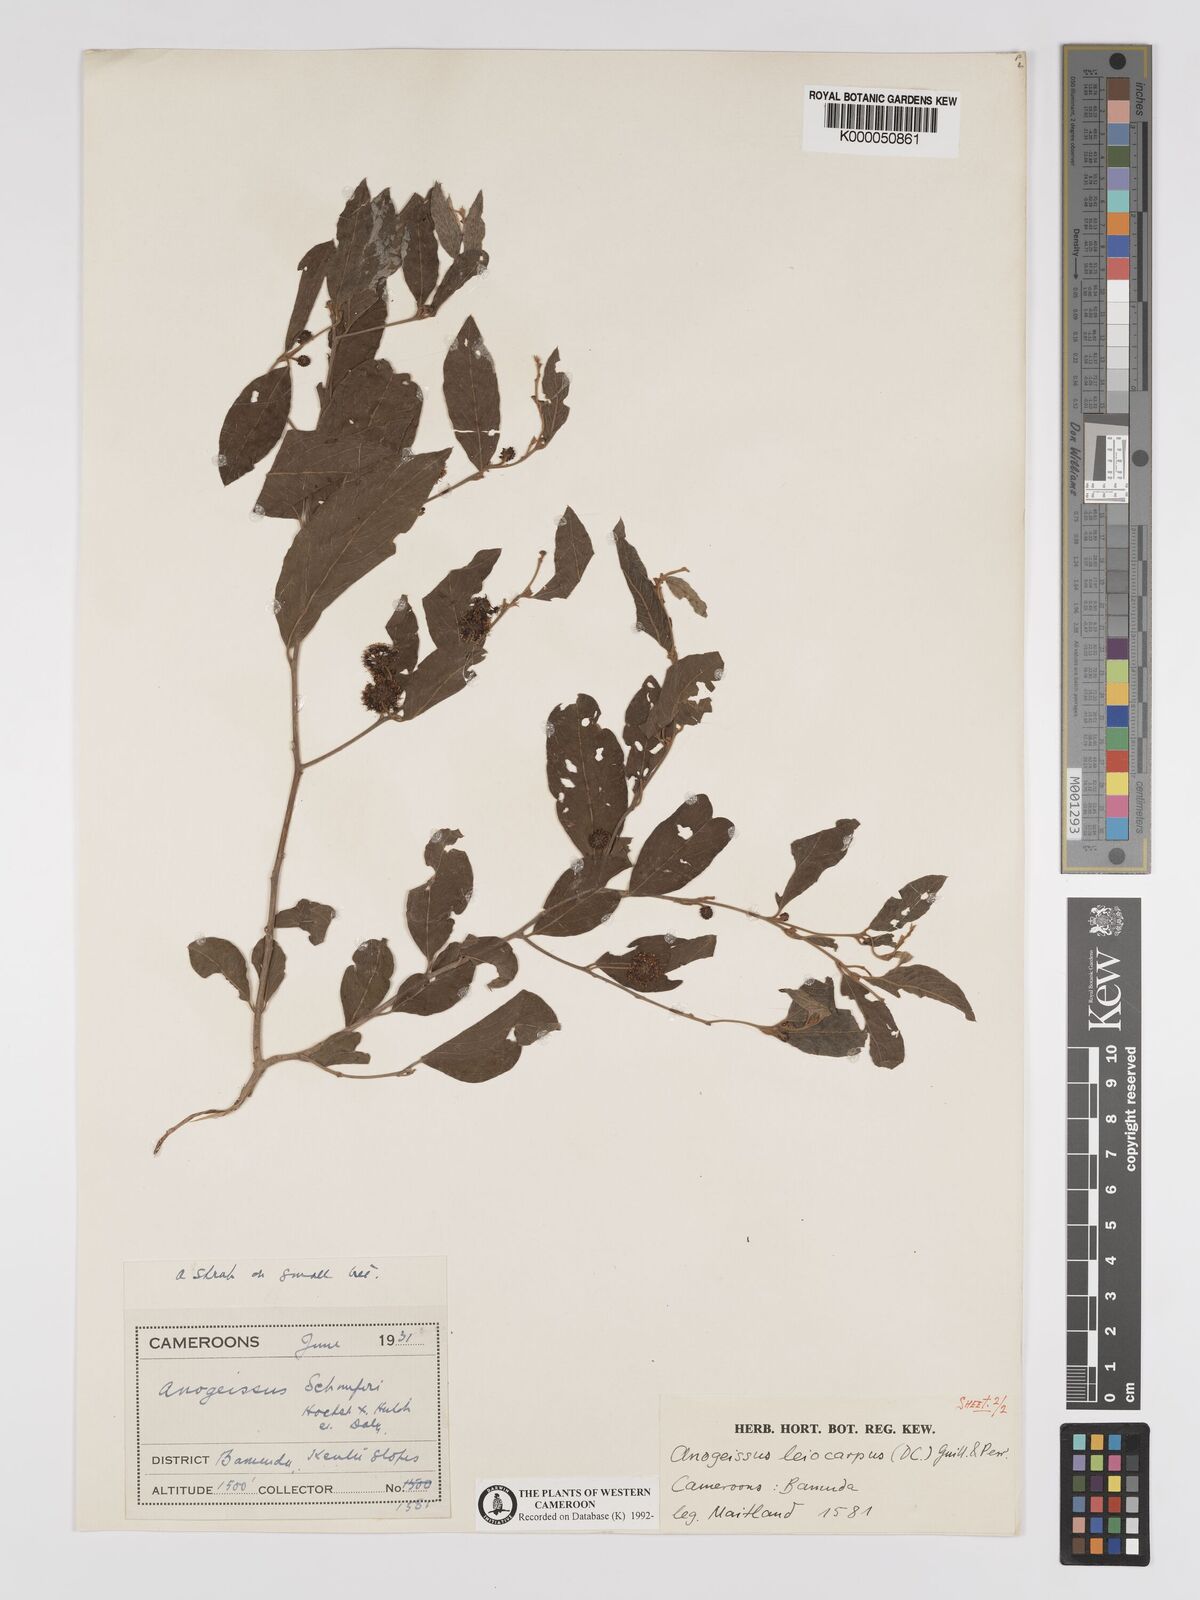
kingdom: Plantae
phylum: Tracheophyta
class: Magnoliopsida
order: Myrtales
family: Combretaceae
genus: Terminalia
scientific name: Terminalia leiocarpa
